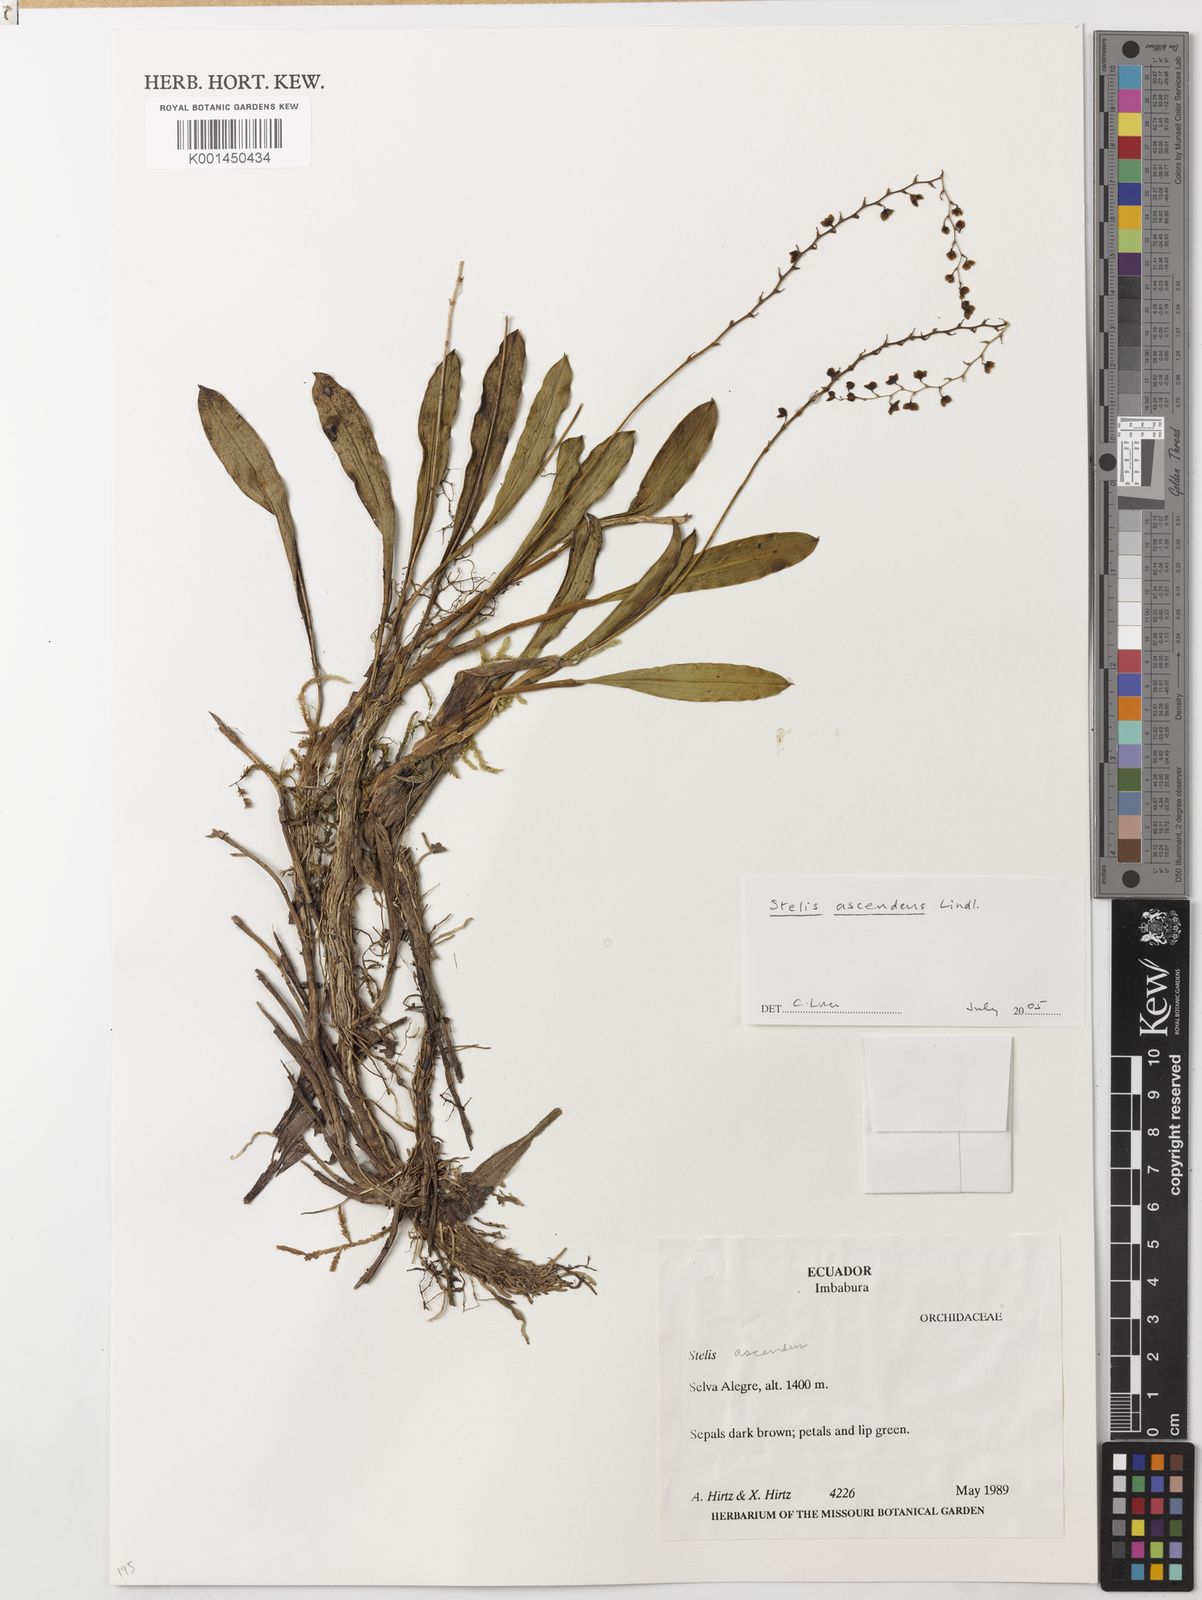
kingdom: Plantae
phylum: Tracheophyta
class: Liliopsida
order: Asparagales
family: Orchidaceae
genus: Stelis
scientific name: Stelis ascendens
